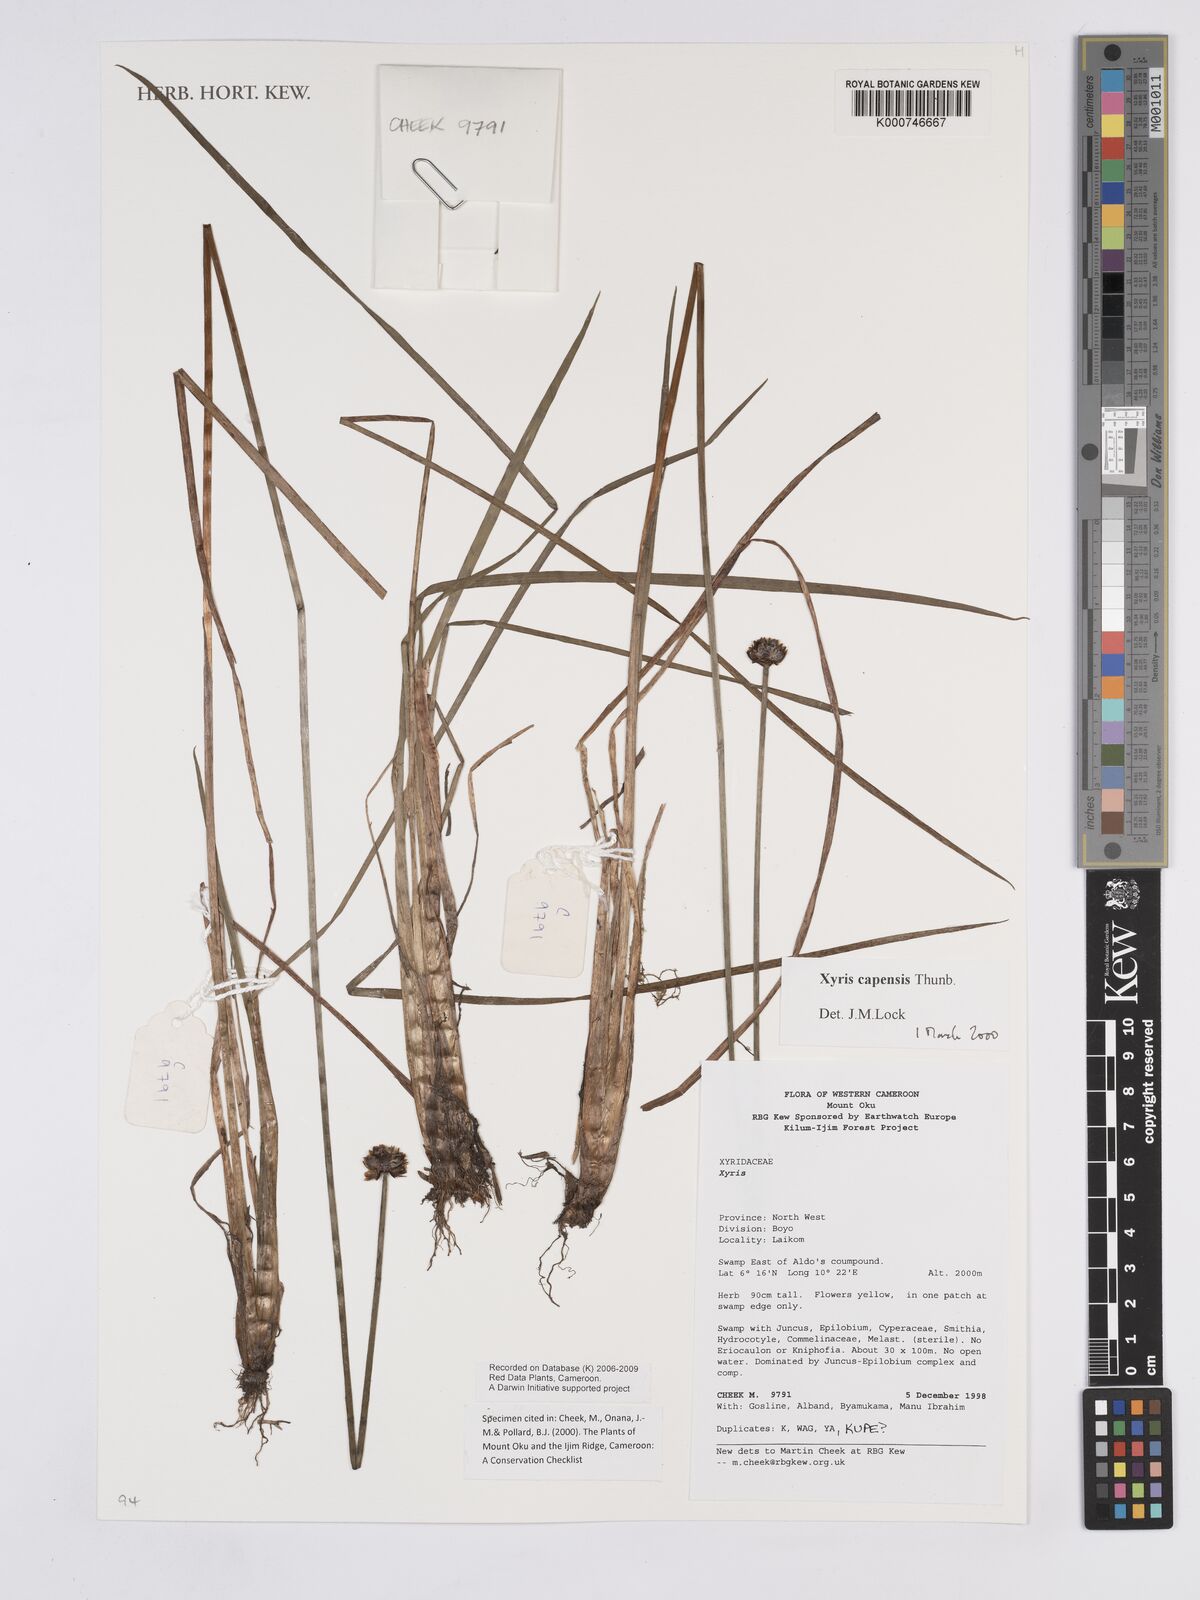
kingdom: Plantae
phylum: Tracheophyta
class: Liliopsida
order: Poales
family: Xyridaceae
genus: Xyris
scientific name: Xyris capensis
